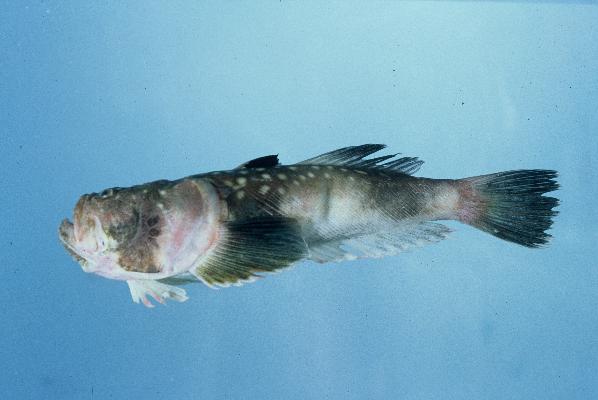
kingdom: Animalia
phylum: Chordata
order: Perciformes
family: Uranoscopidae
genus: Uranoscopus
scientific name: Uranoscopus archionema
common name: Stargazer
